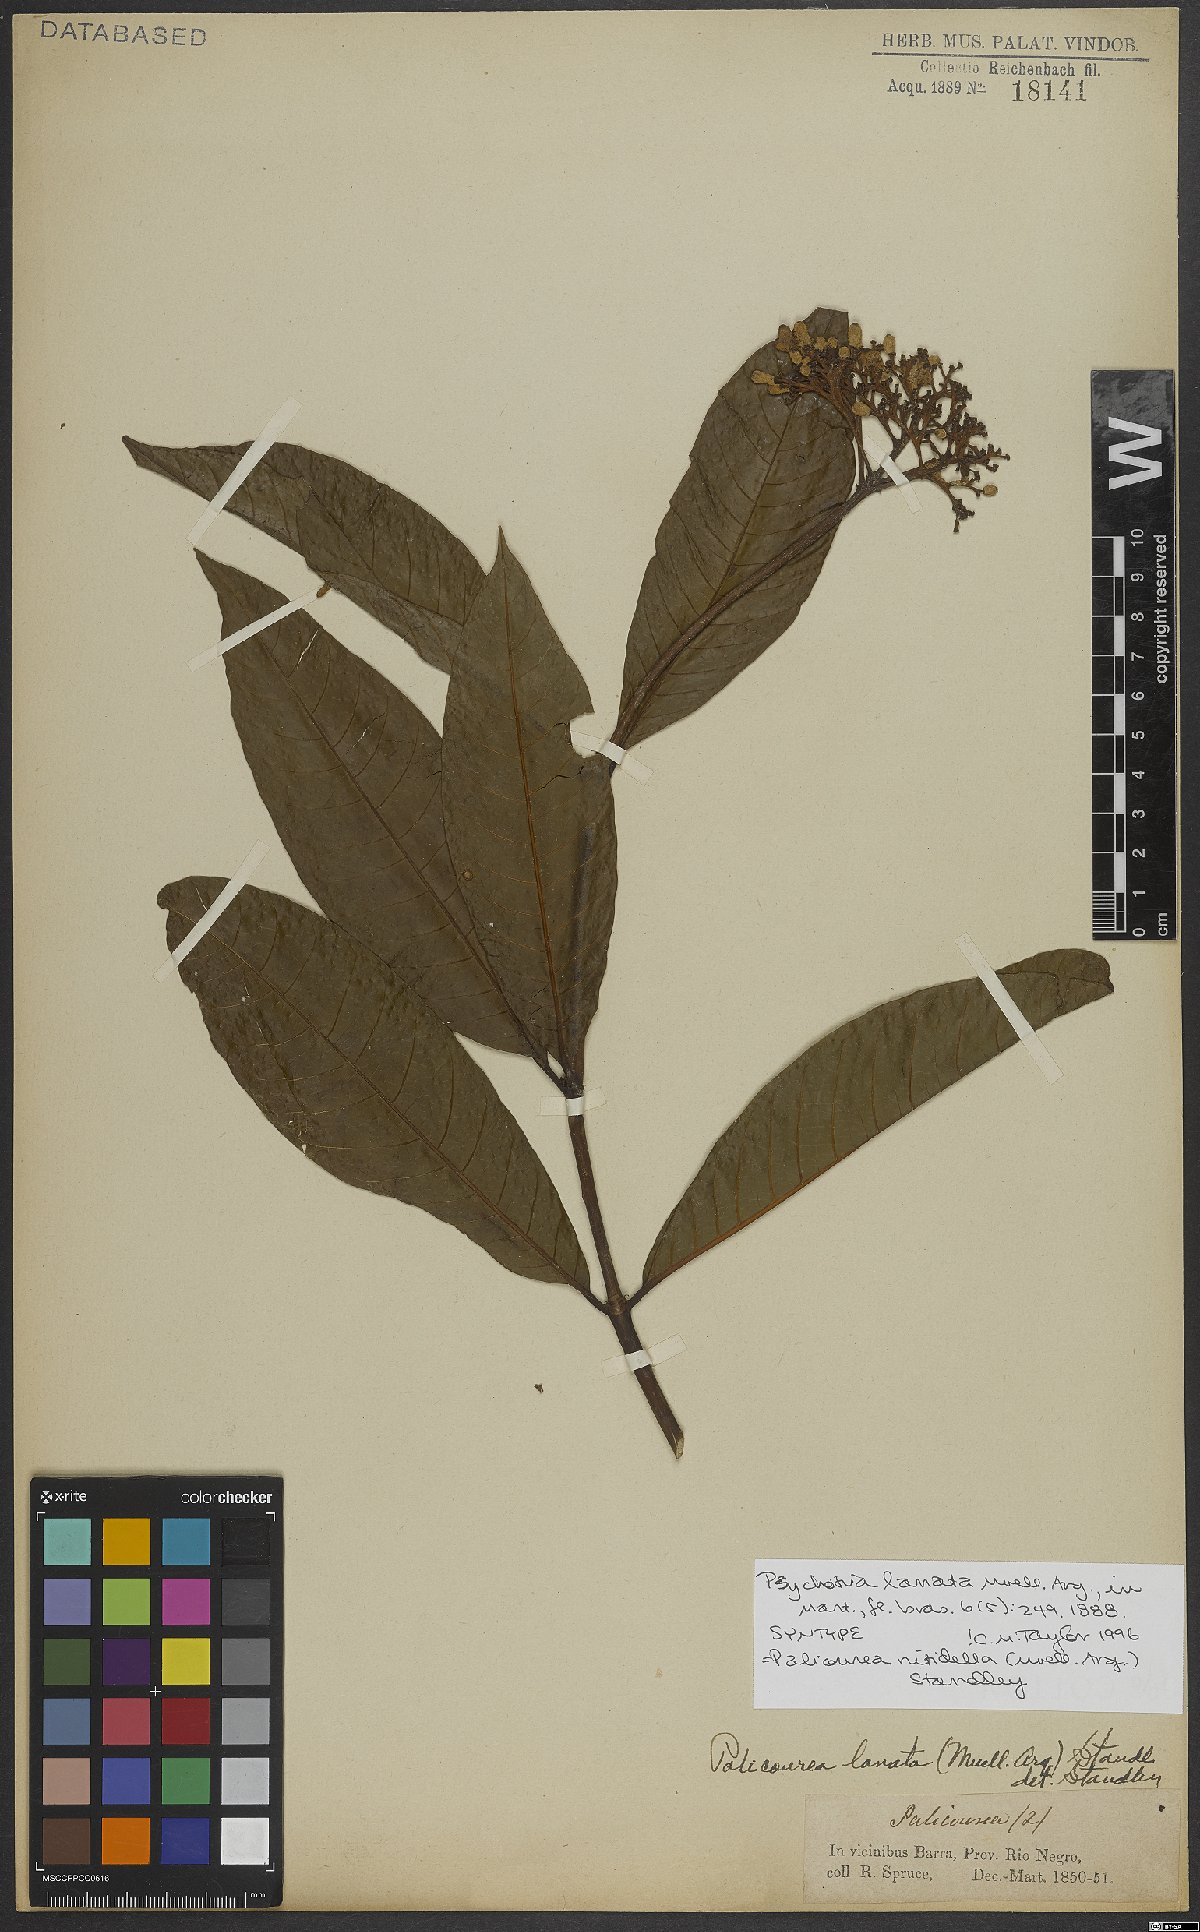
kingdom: Plantae
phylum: Tracheophyta
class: Magnoliopsida
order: Gentianales
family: Rubiaceae
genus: Palicourea
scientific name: Palicourea nitidella
